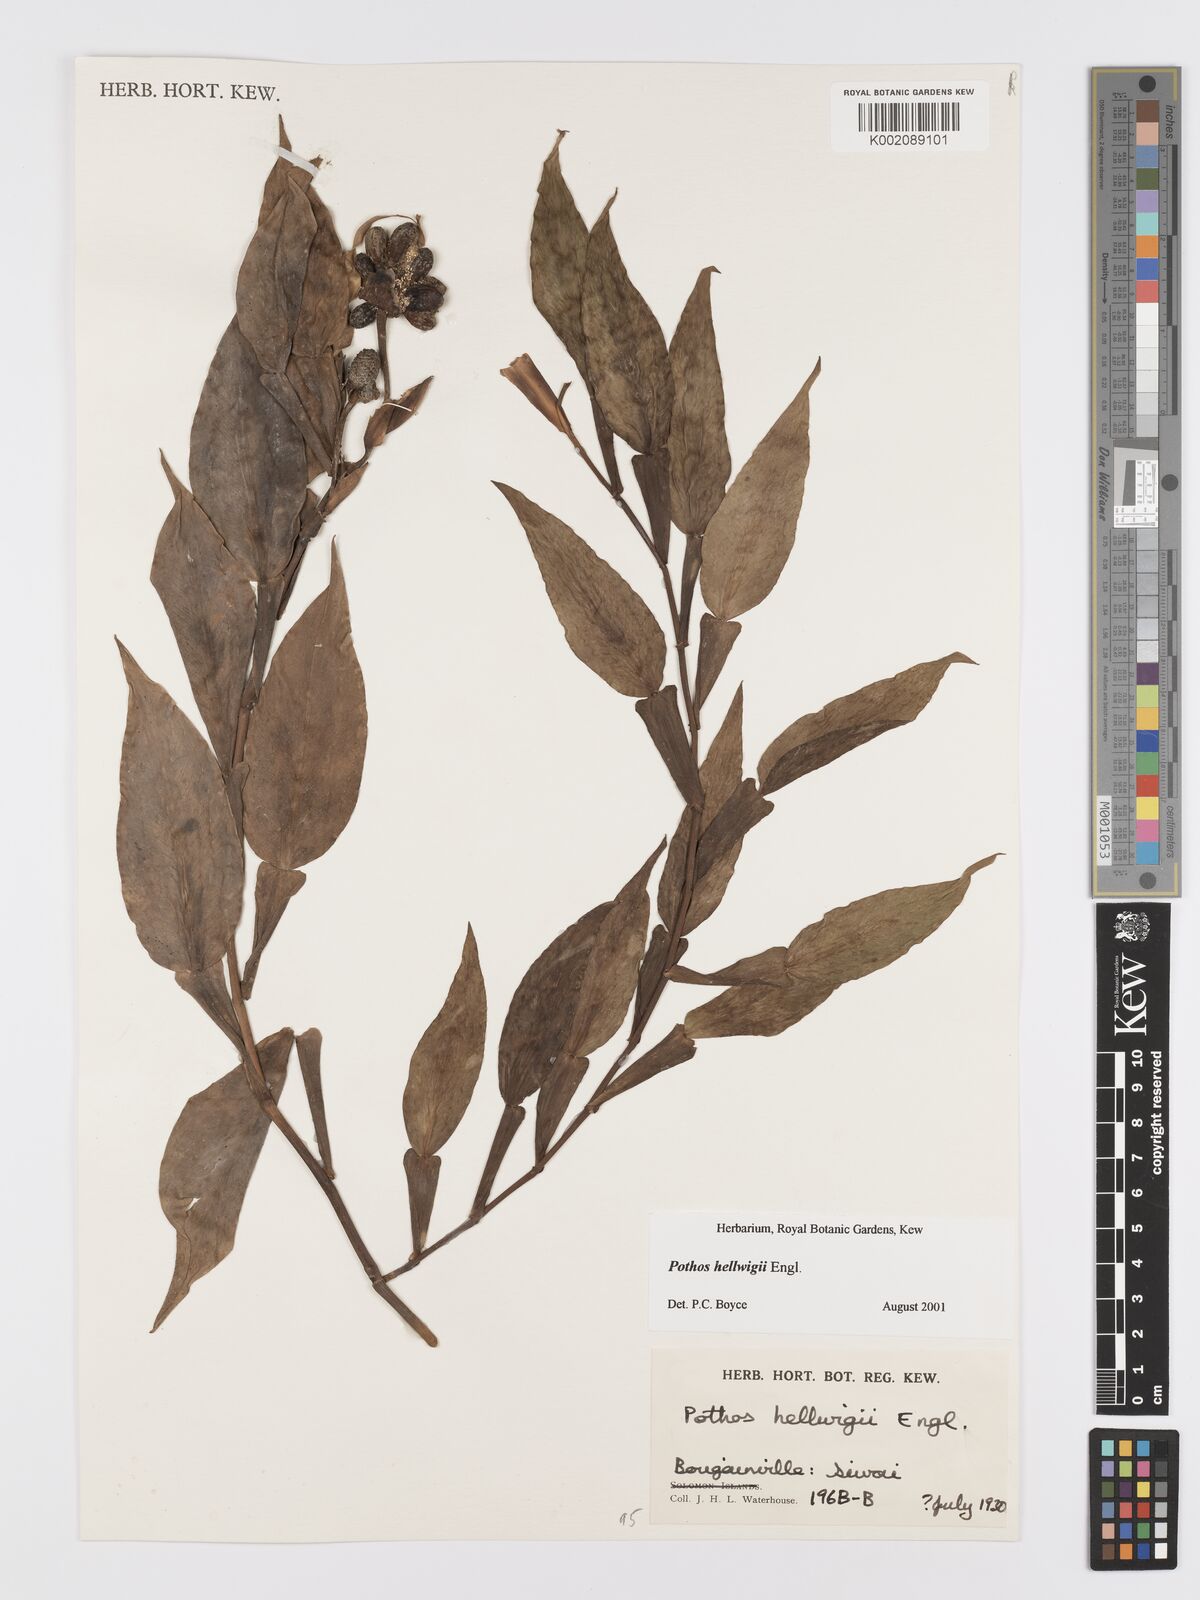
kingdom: Plantae
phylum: Tracheophyta
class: Liliopsida
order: Alismatales
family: Araceae
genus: Pothos
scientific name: Pothos hellwigii
